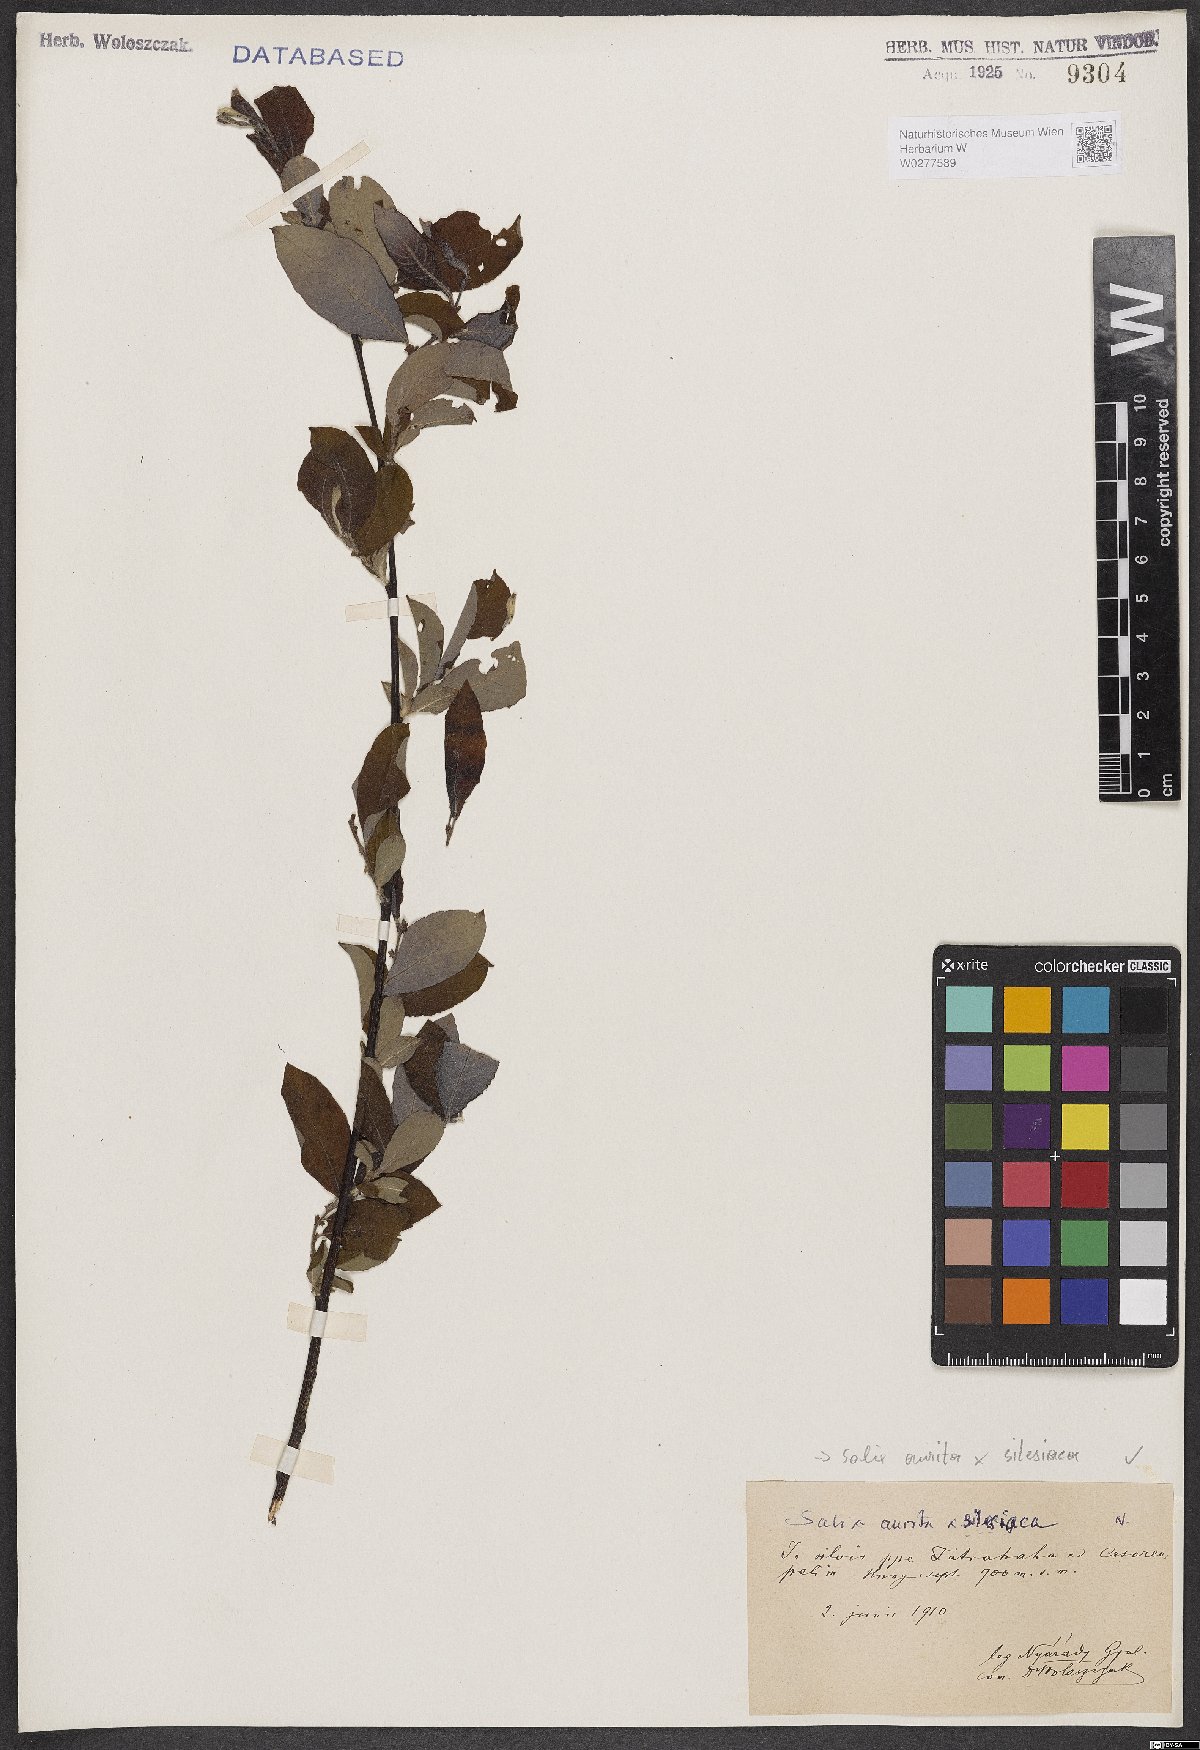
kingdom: Plantae
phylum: Tracheophyta
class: Magnoliopsida
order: Malpighiales
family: Salicaceae
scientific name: Salicaceae
